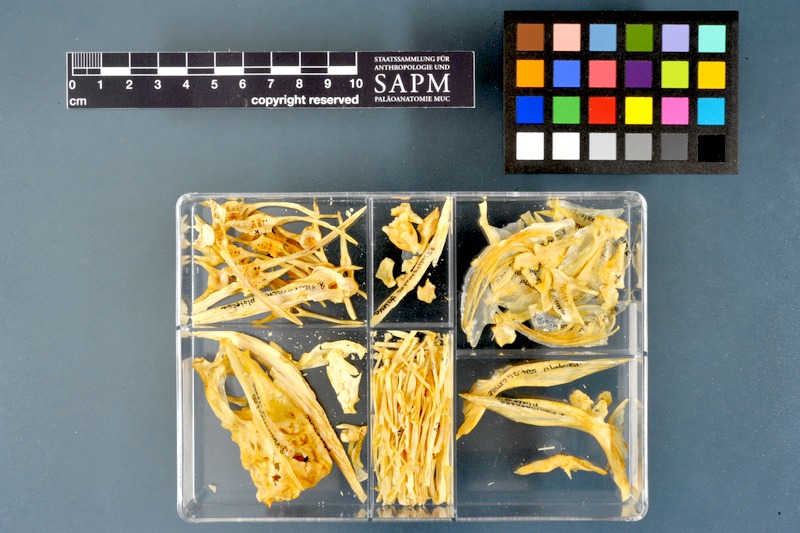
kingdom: Animalia
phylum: Chordata
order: Pleuronectiformes
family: Pleuronectidae
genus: Pleuronectes
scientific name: Pleuronectes platessa
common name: Plaice
